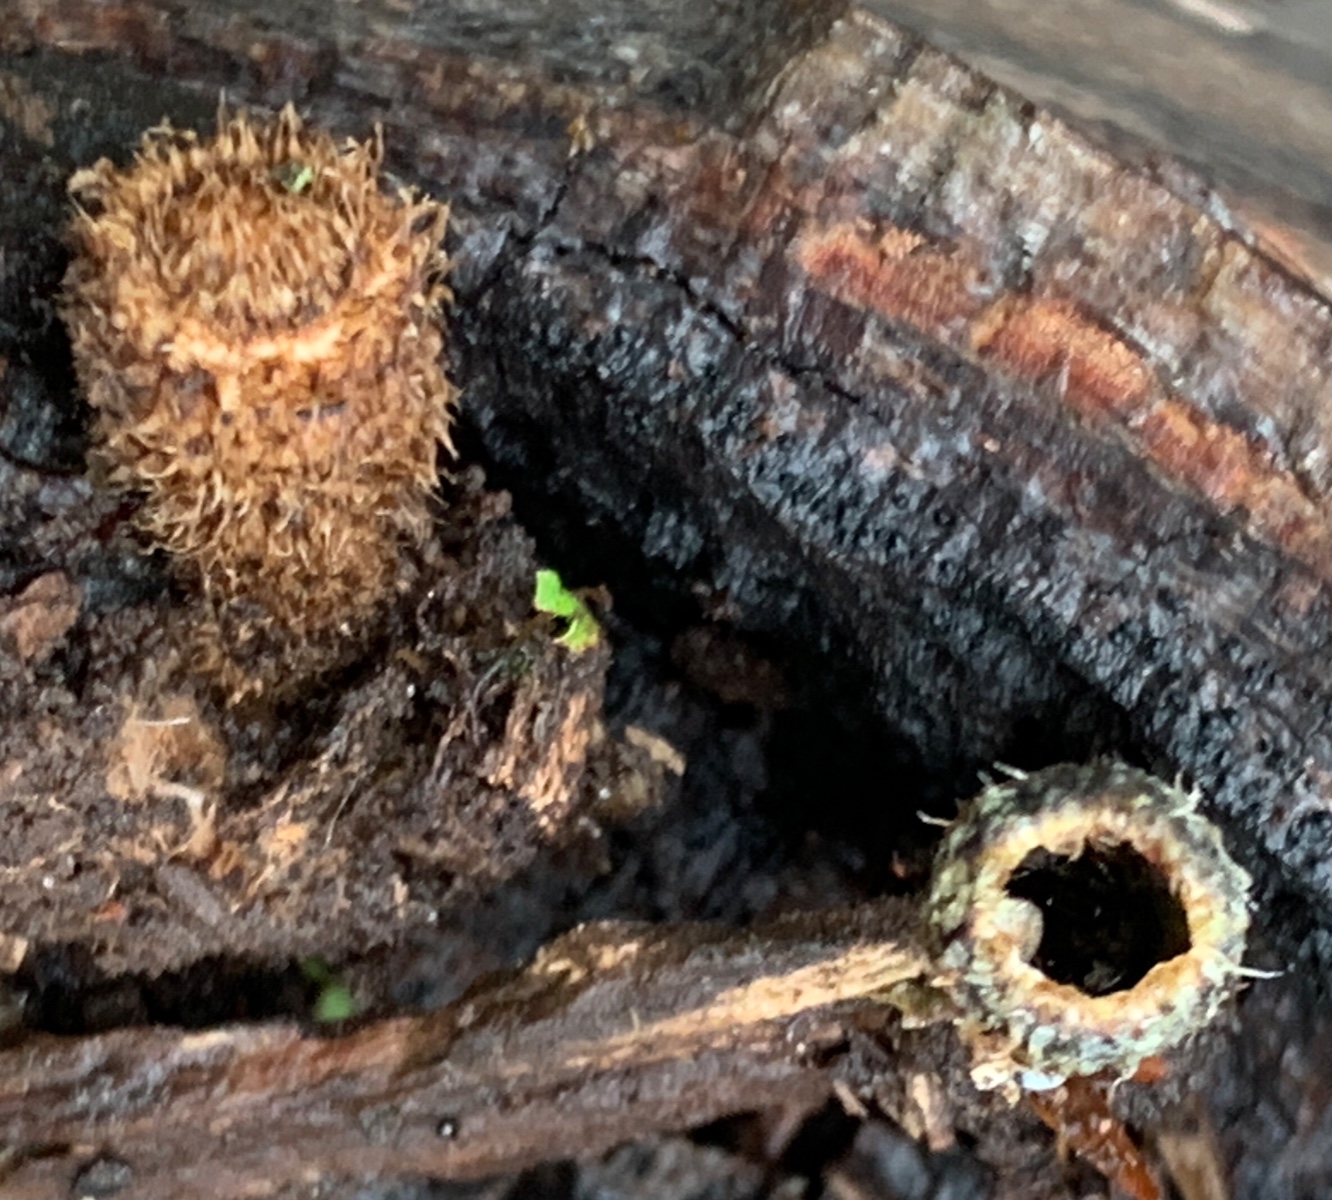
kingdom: Fungi
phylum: Basidiomycota
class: Agaricomycetes
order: Agaricales
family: Agaricaceae
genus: Cyathus
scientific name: Cyathus striatus
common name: stribet redesvamp
